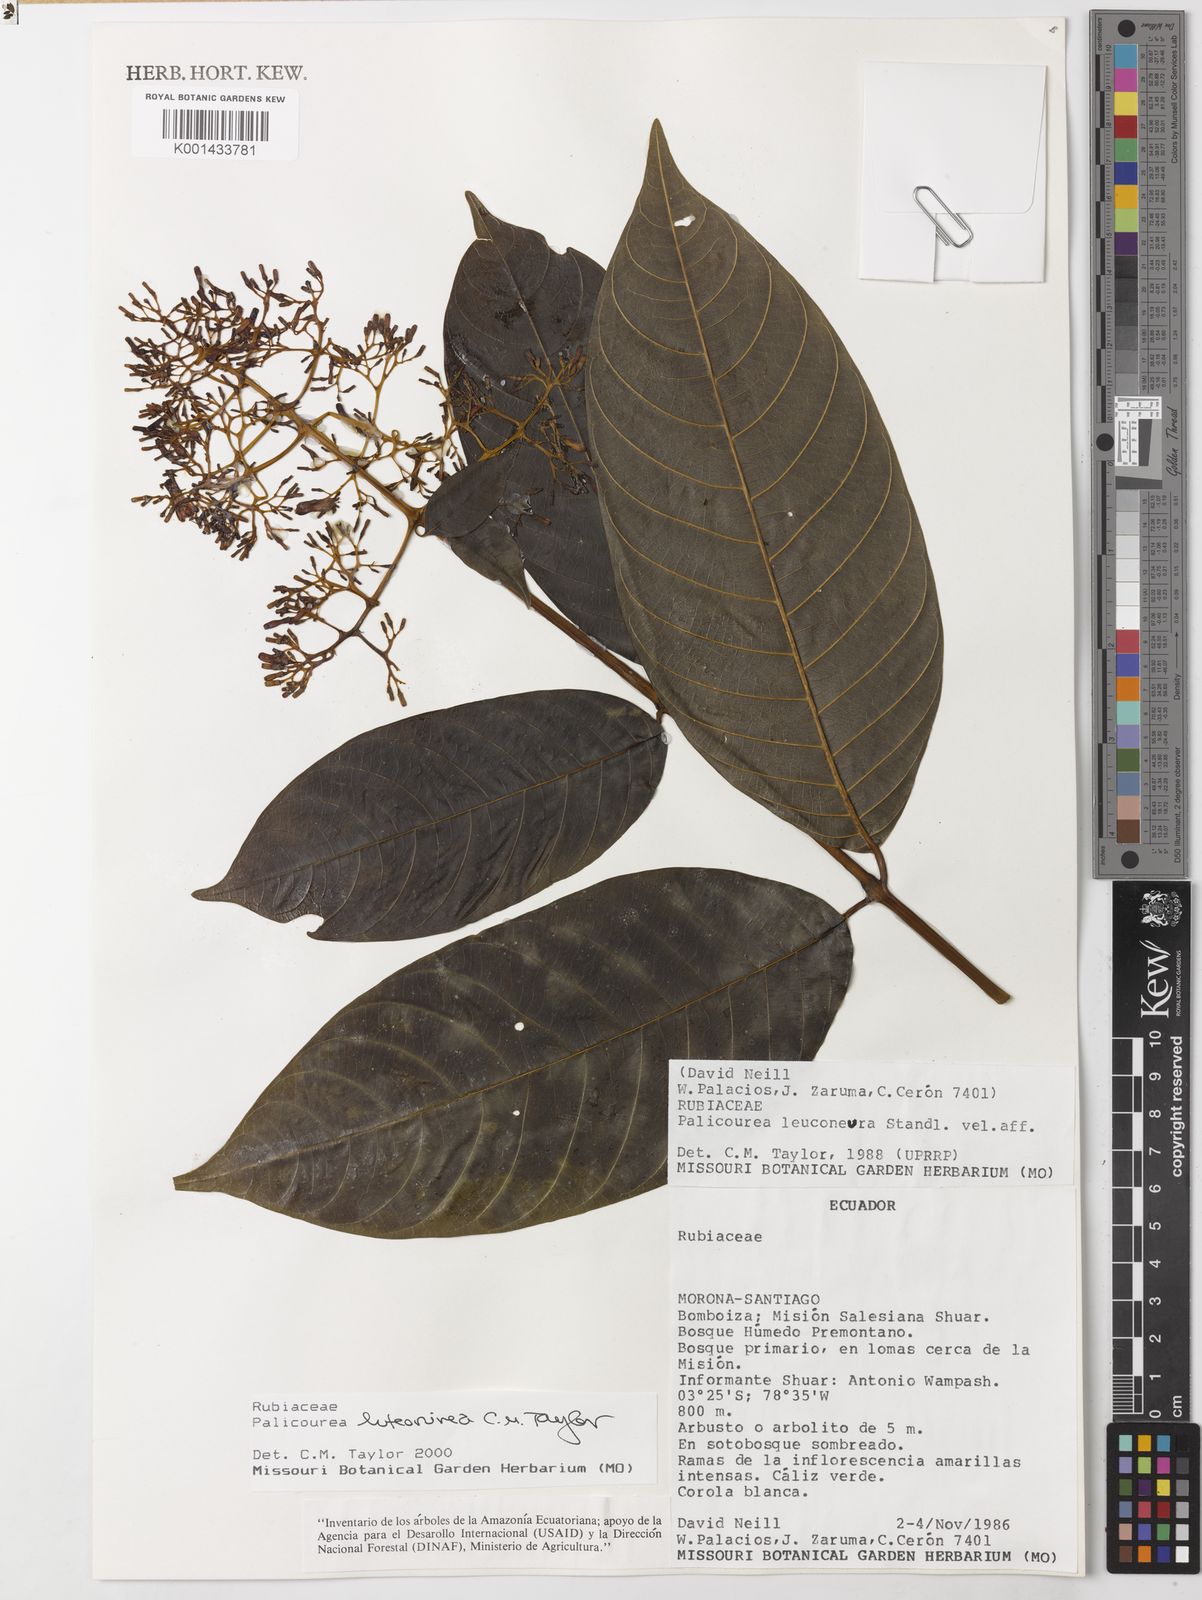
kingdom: Plantae
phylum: Tracheophyta
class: Magnoliopsida
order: Gentianales
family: Rubiaceae
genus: Palicourea
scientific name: Palicourea luteonivea
